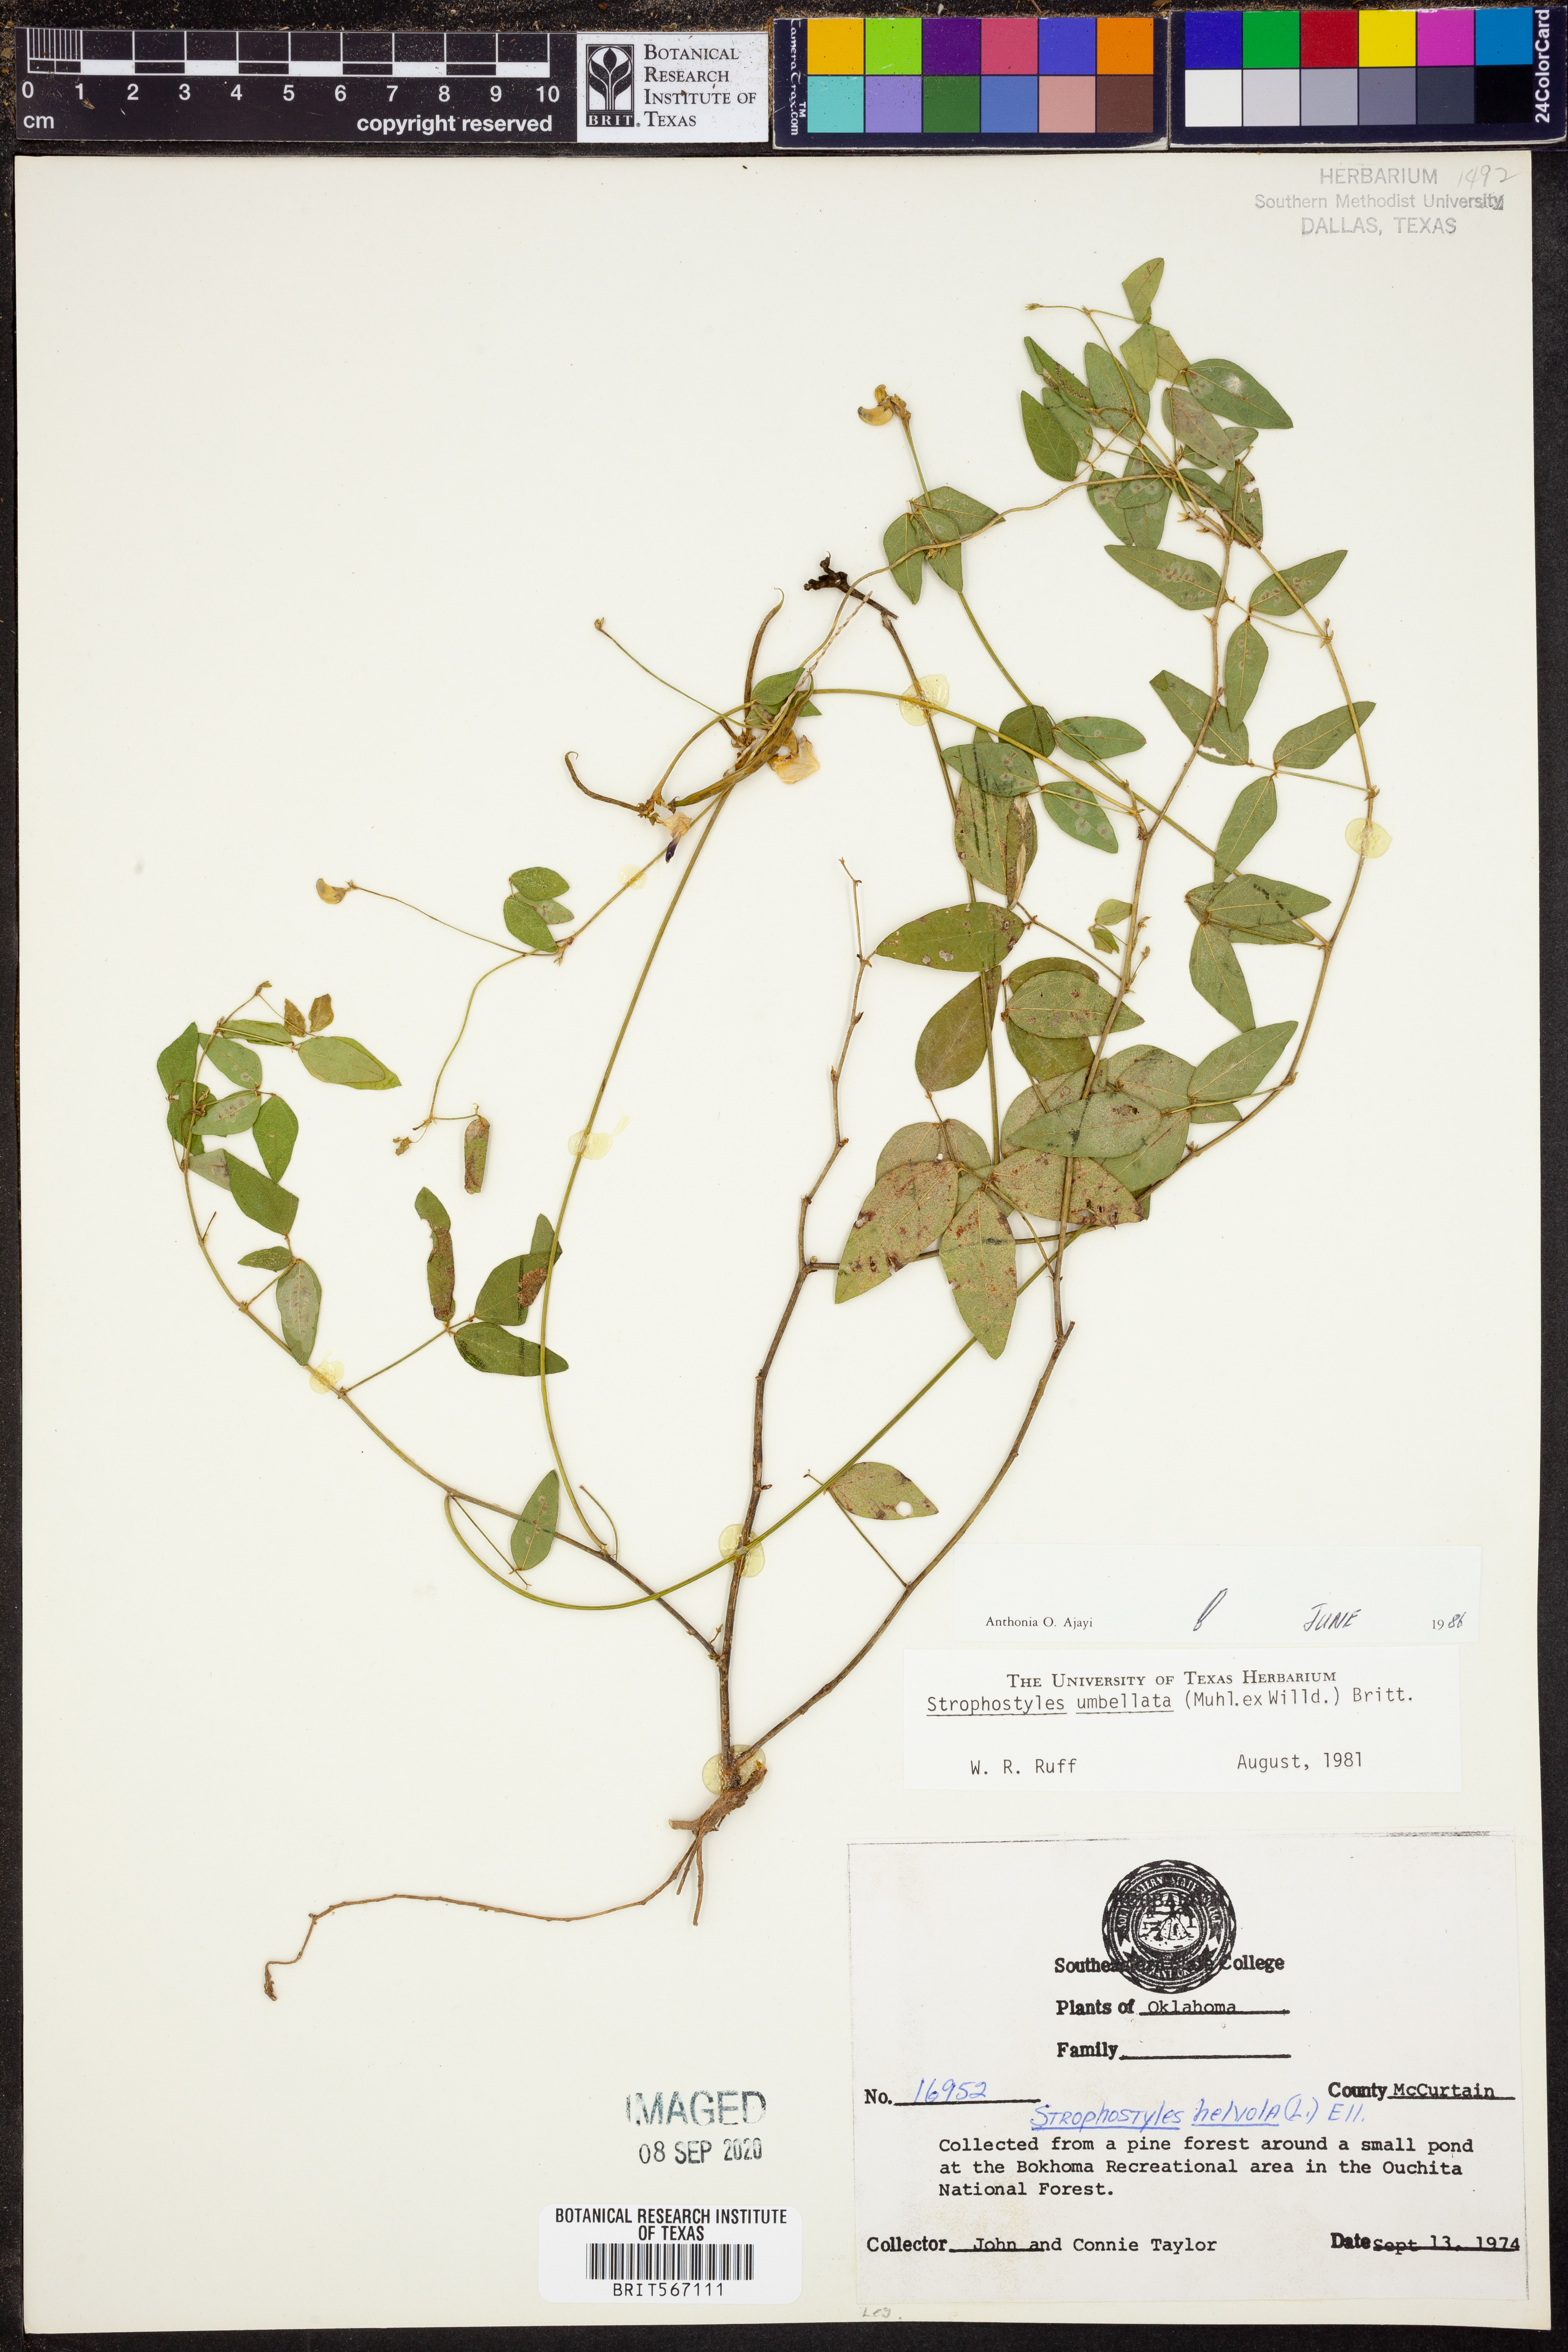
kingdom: Plantae
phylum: Tracheophyta
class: Magnoliopsida
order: Fabales
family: Fabaceae
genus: Strophostyles
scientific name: Strophostyles umbellata
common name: Perennial wild bean
